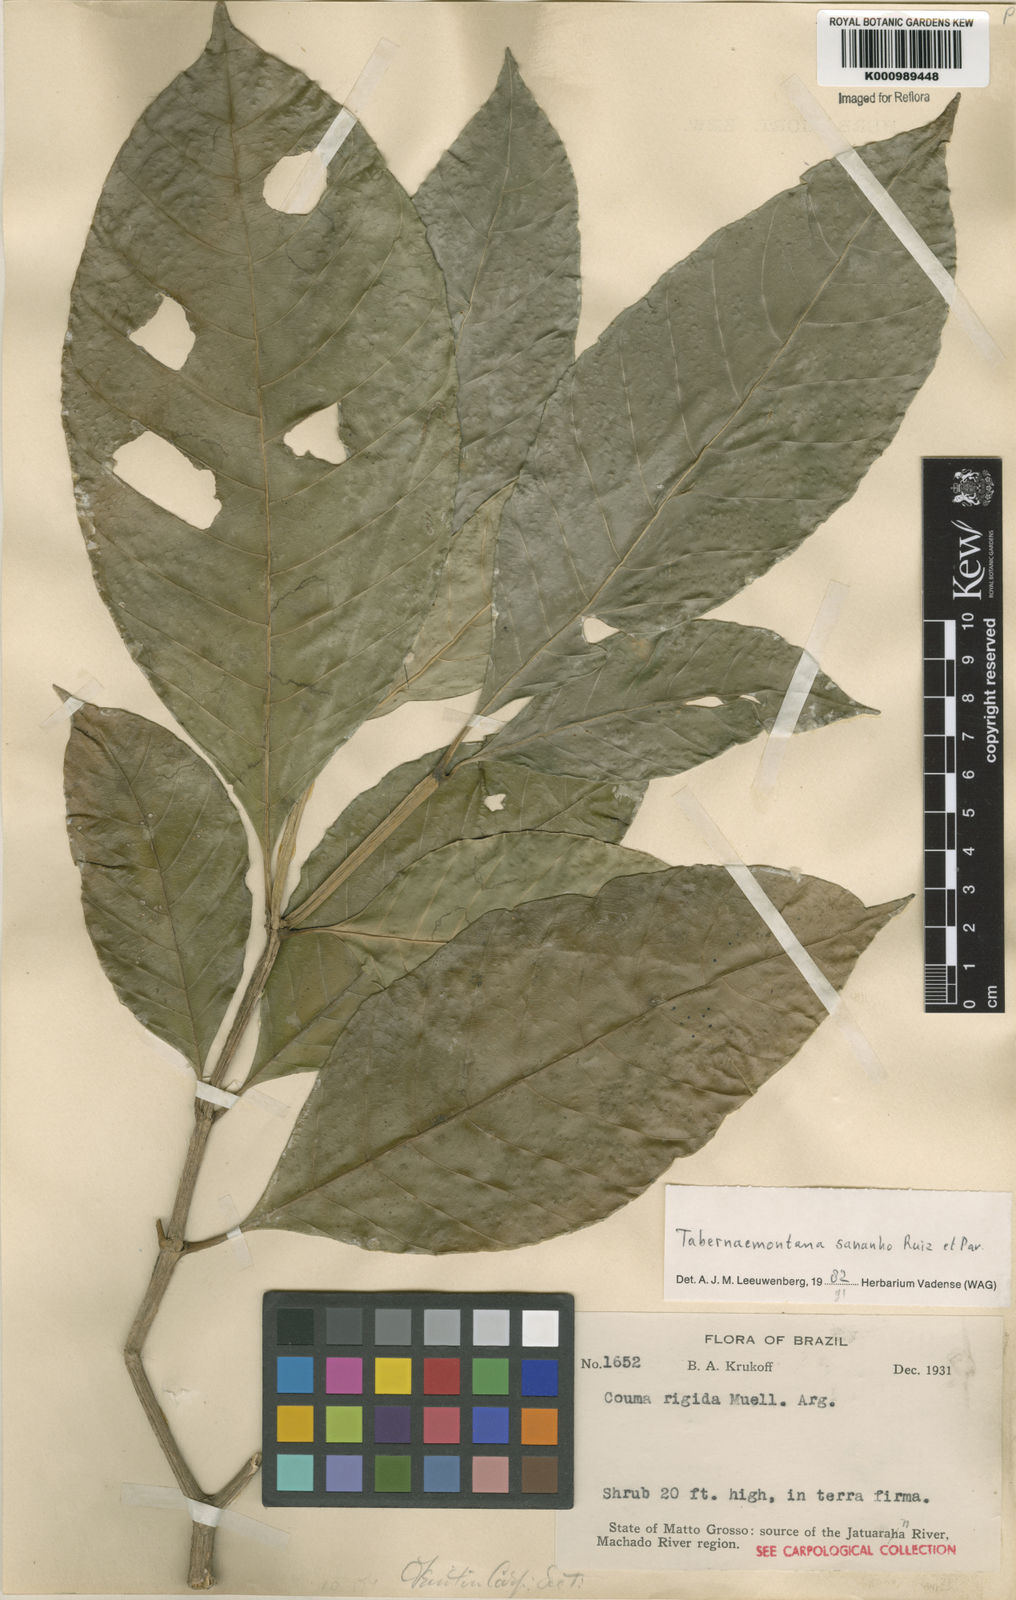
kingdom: Plantae
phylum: Tracheophyta
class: Magnoliopsida
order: Gentianales
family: Apocynaceae
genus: Tabernaemontana
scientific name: Tabernaemontana sananho
